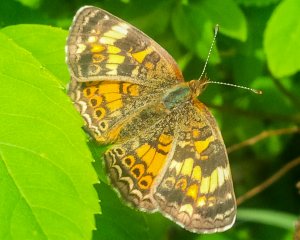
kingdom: Animalia
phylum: Arthropoda
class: Insecta
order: Lepidoptera
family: Nymphalidae
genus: Phyciodes
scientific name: Phyciodes tharos
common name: Northern Crescent
